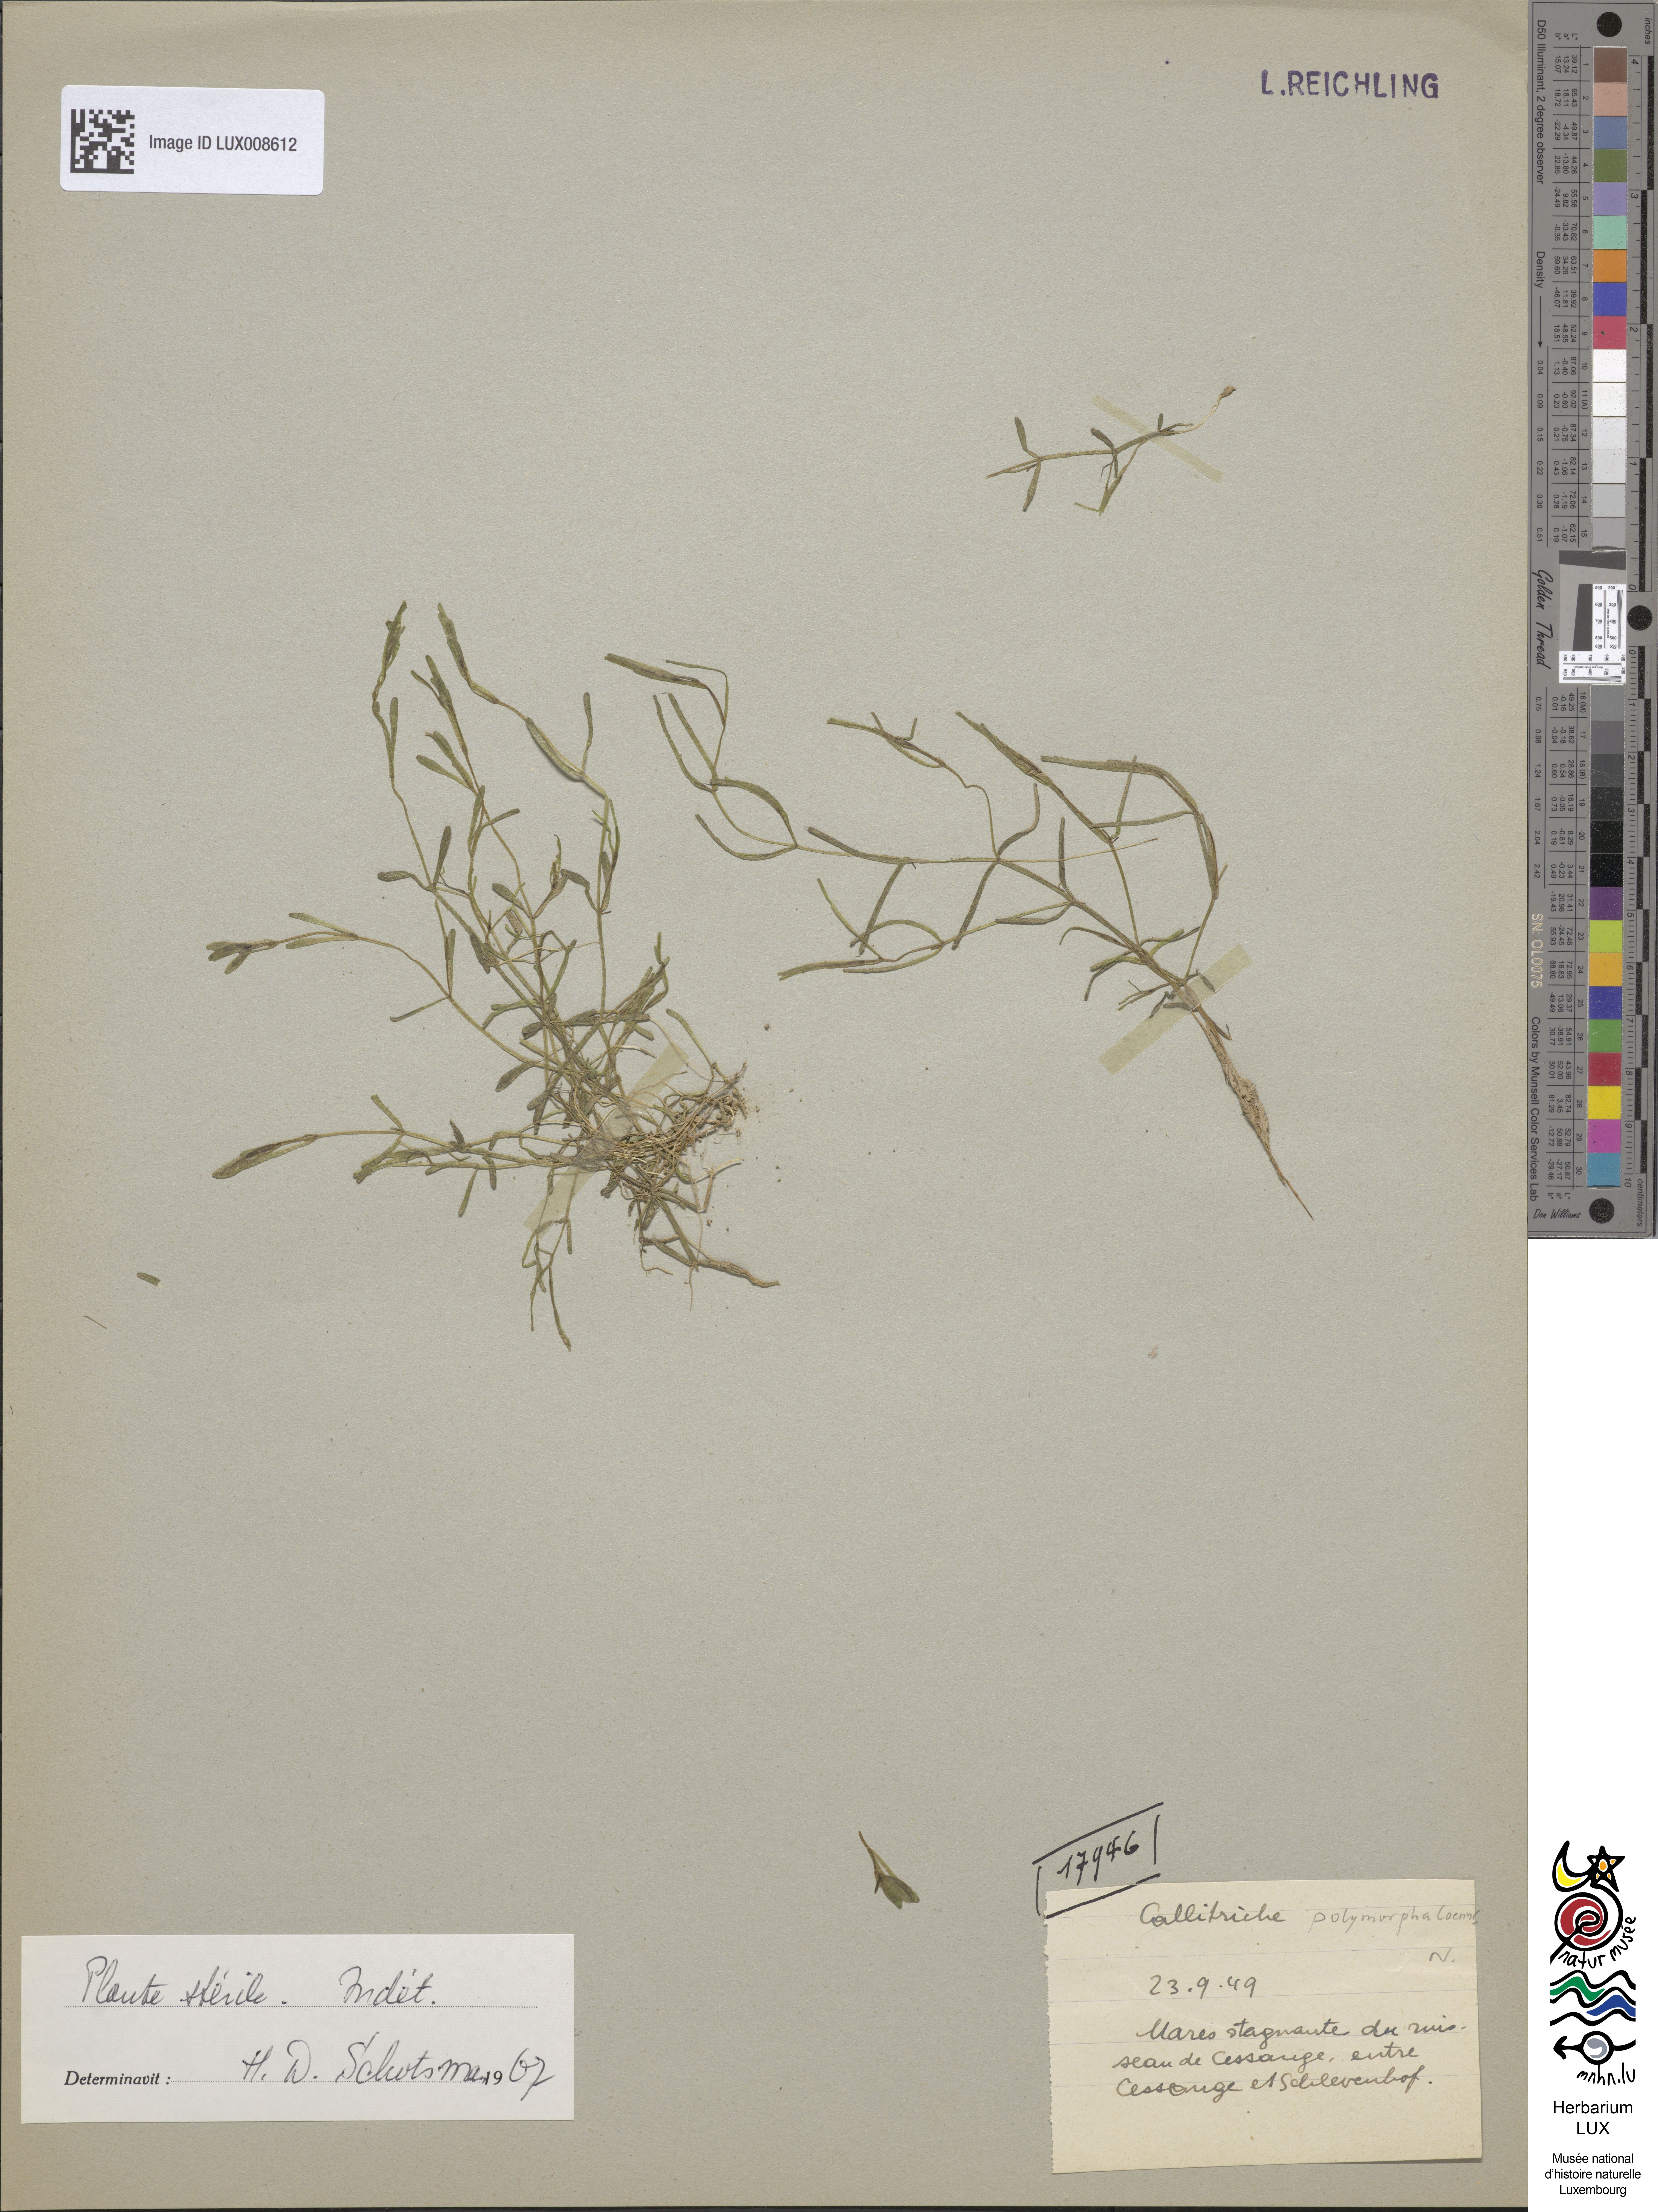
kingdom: Plantae
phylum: Tracheophyta
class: Magnoliopsida
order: Lamiales
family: Plantaginaceae
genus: Callitriche
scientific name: Callitriche
